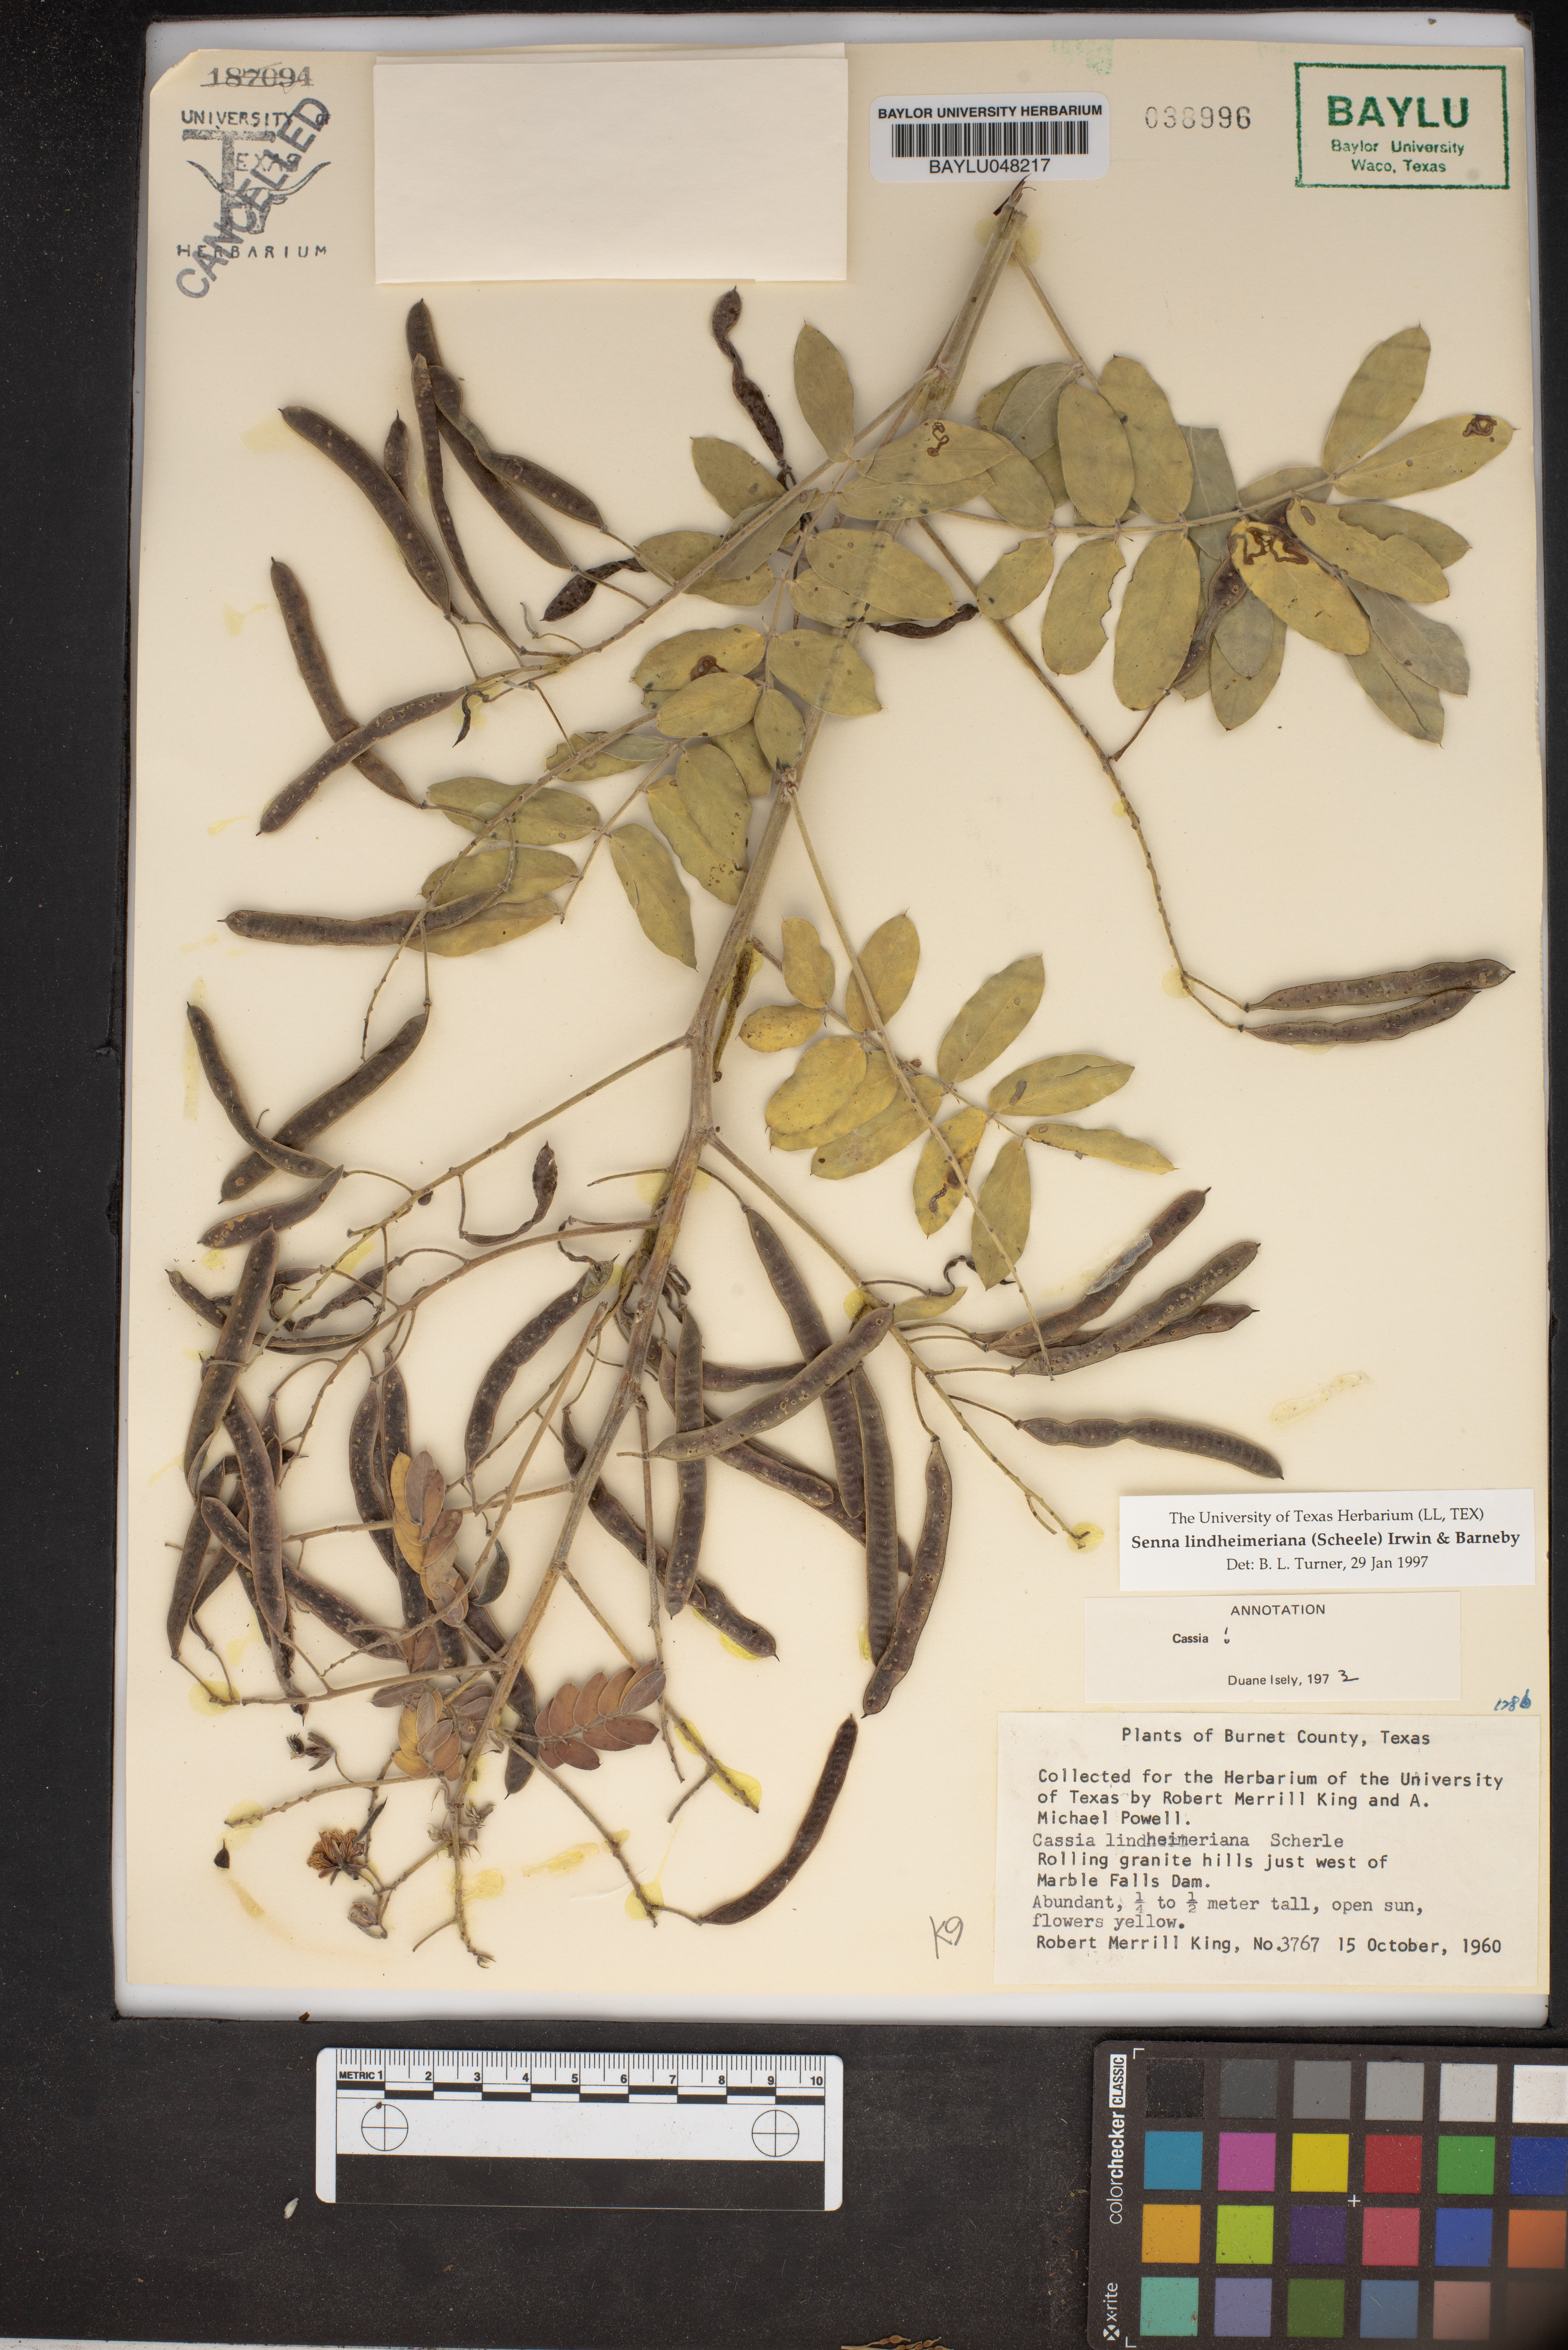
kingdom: Plantae
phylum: Tracheophyta
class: Magnoliopsida
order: Fabales
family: Fabaceae
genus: Senna
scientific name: Senna lindheimeriana
